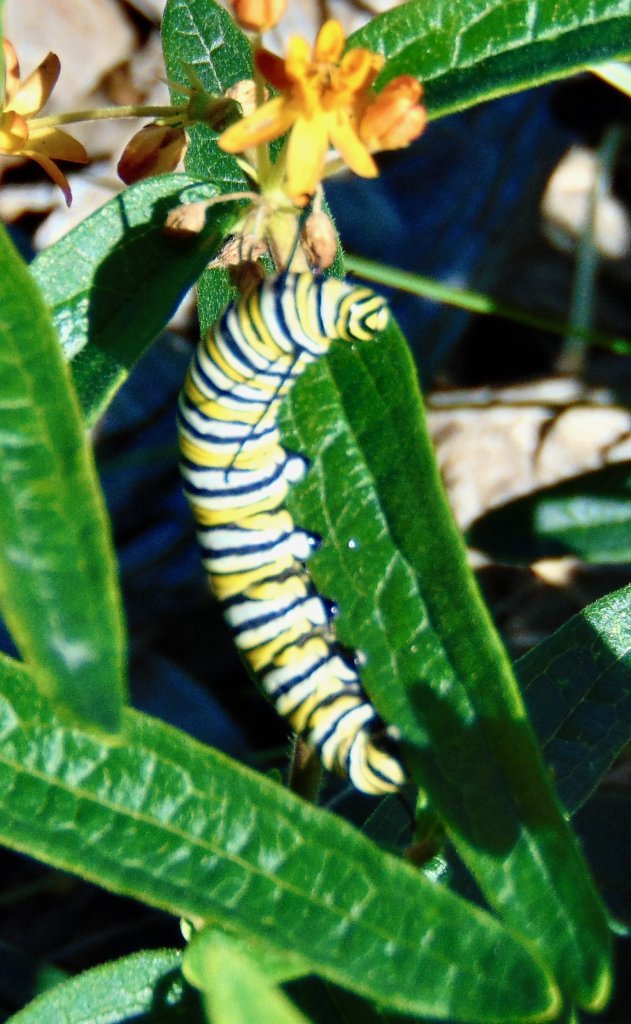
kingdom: Animalia
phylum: Arthropoda
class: Insecta
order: Lepidoptera
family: Nymphalidae
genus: Danaus
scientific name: Danaus plexippus
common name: Monarch
